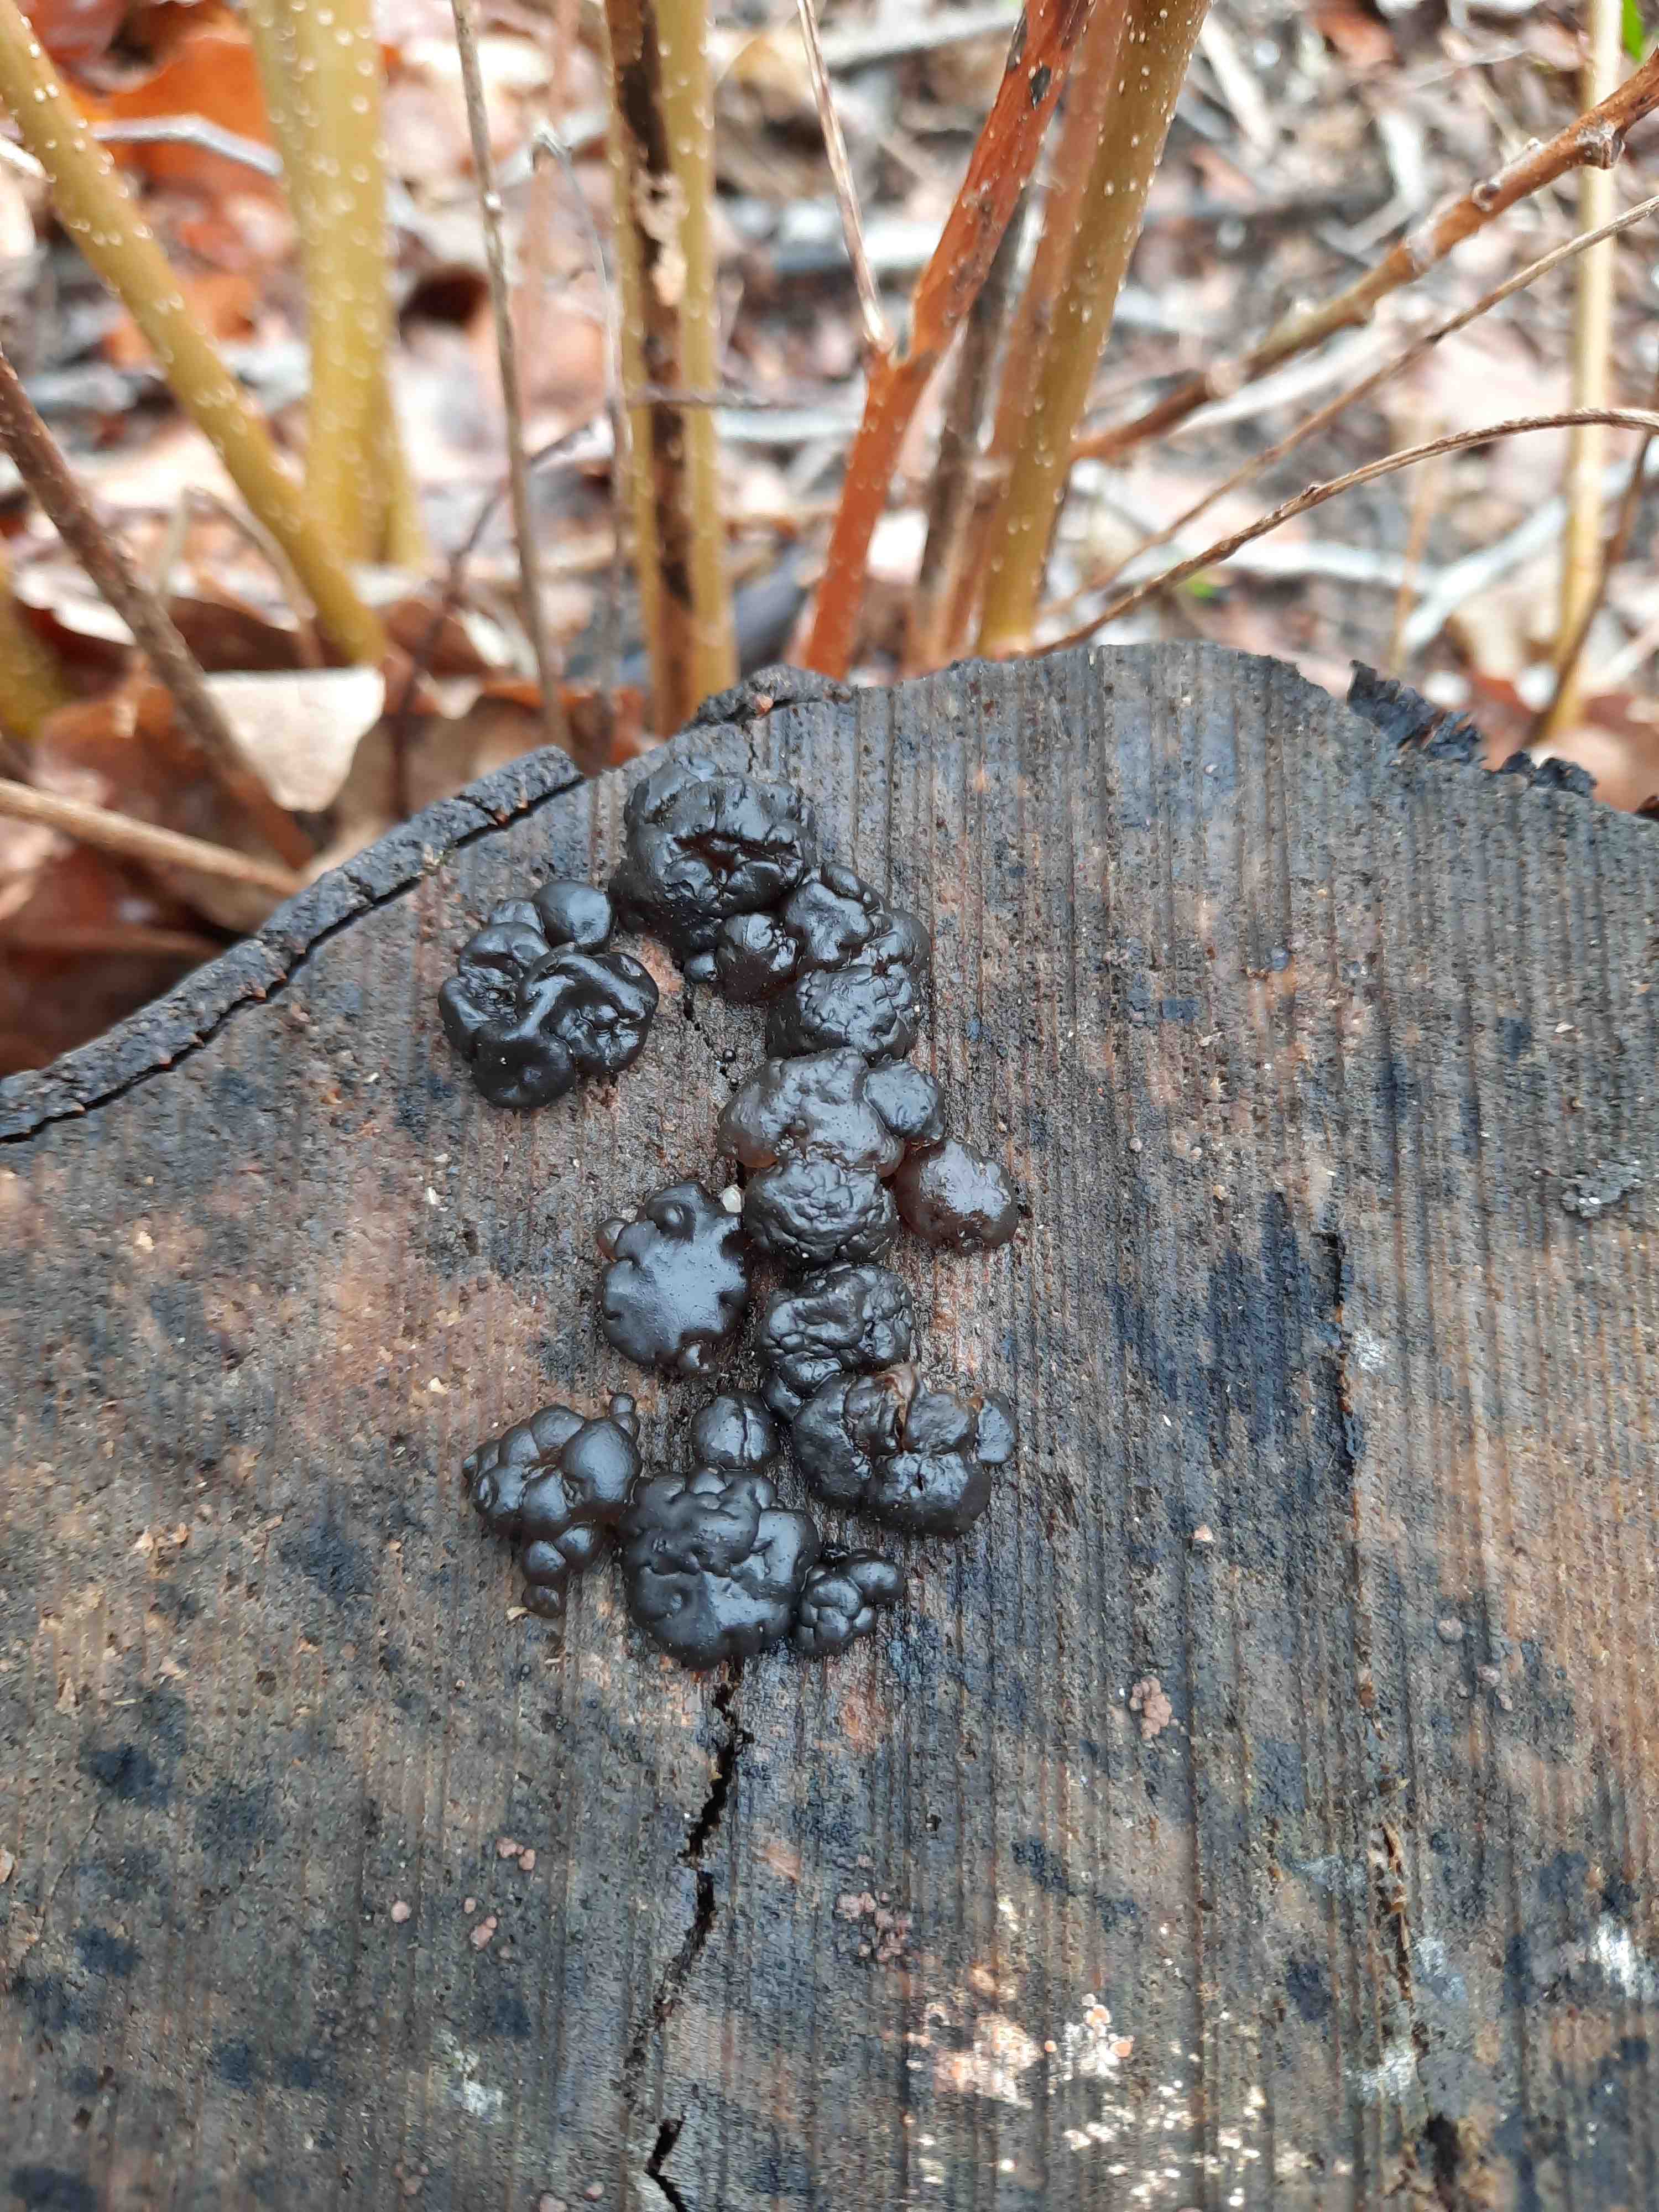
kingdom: Fungi
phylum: Basidiomycota
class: Agaricomycetes
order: Auriculariales
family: Auriculariaceae
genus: Exidia
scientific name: Exidia nigricans
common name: almindelig bævretop
